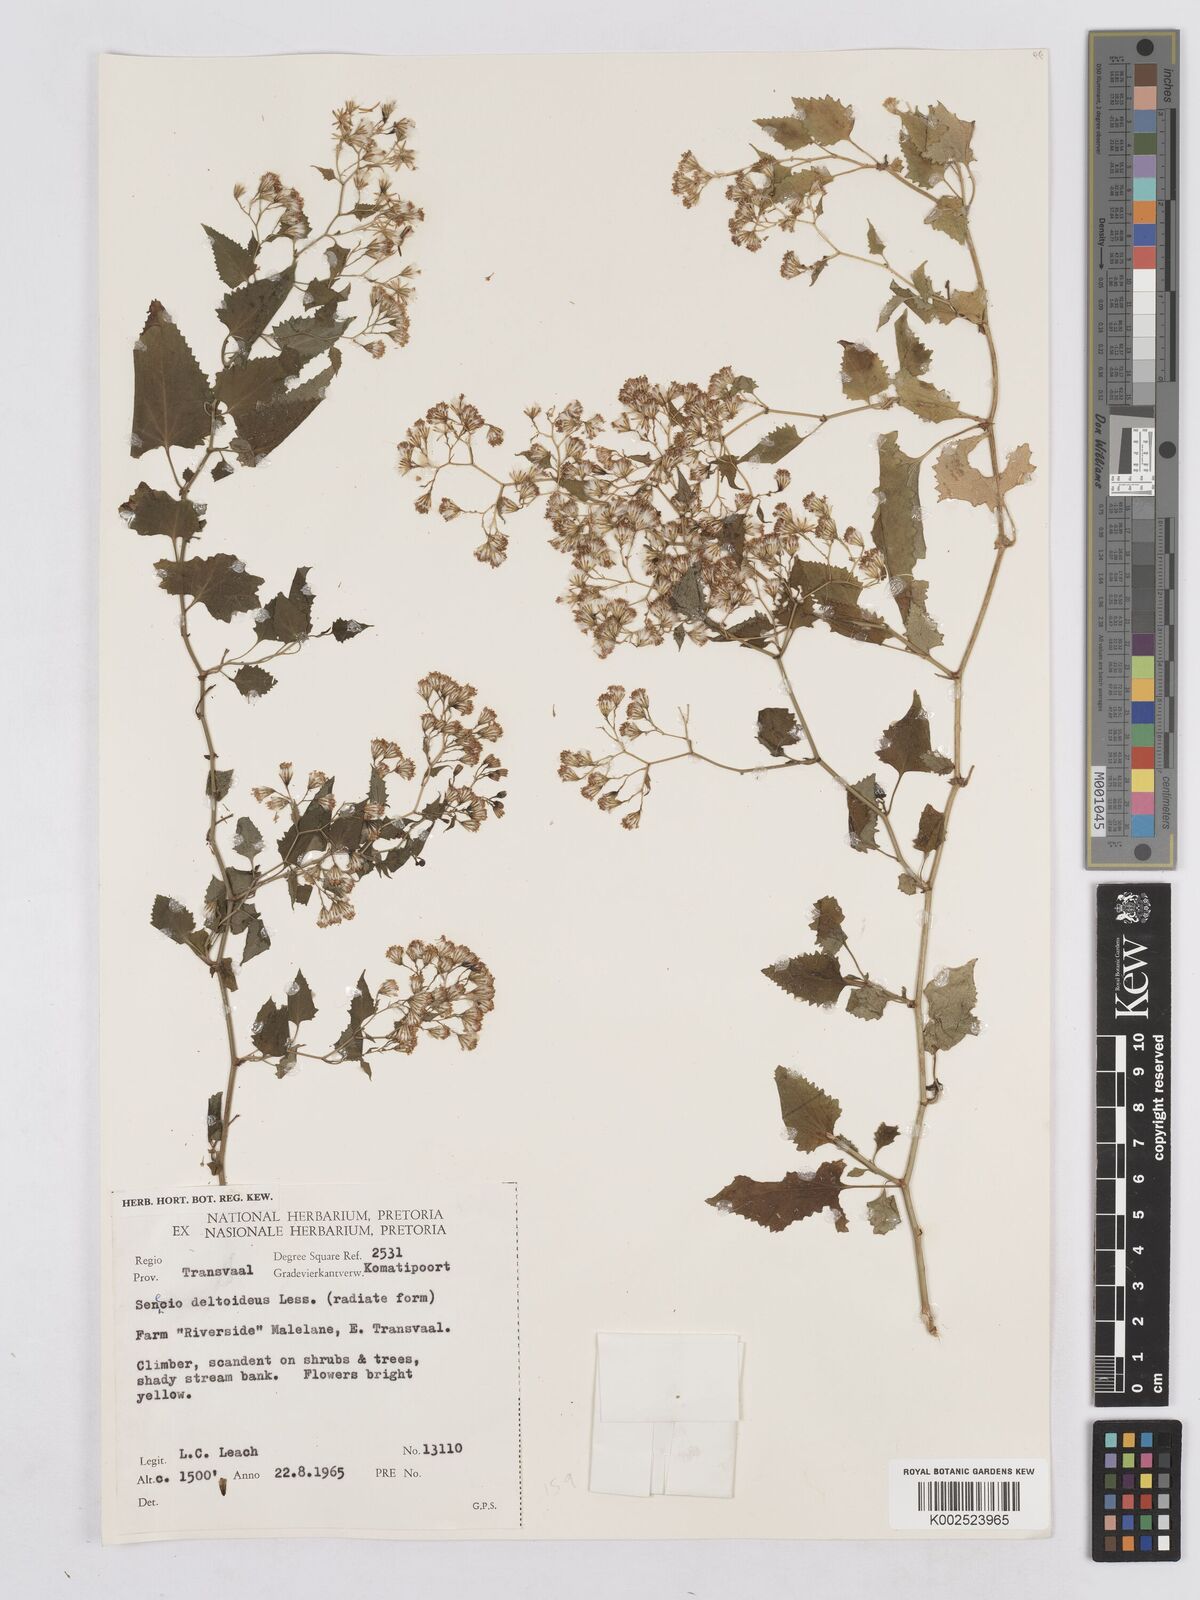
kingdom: Plantae
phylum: Tracheophyta
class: Magnoliopsida
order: Asterales
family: Asteraceae
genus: Senecio
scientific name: Senecio deltoideus
